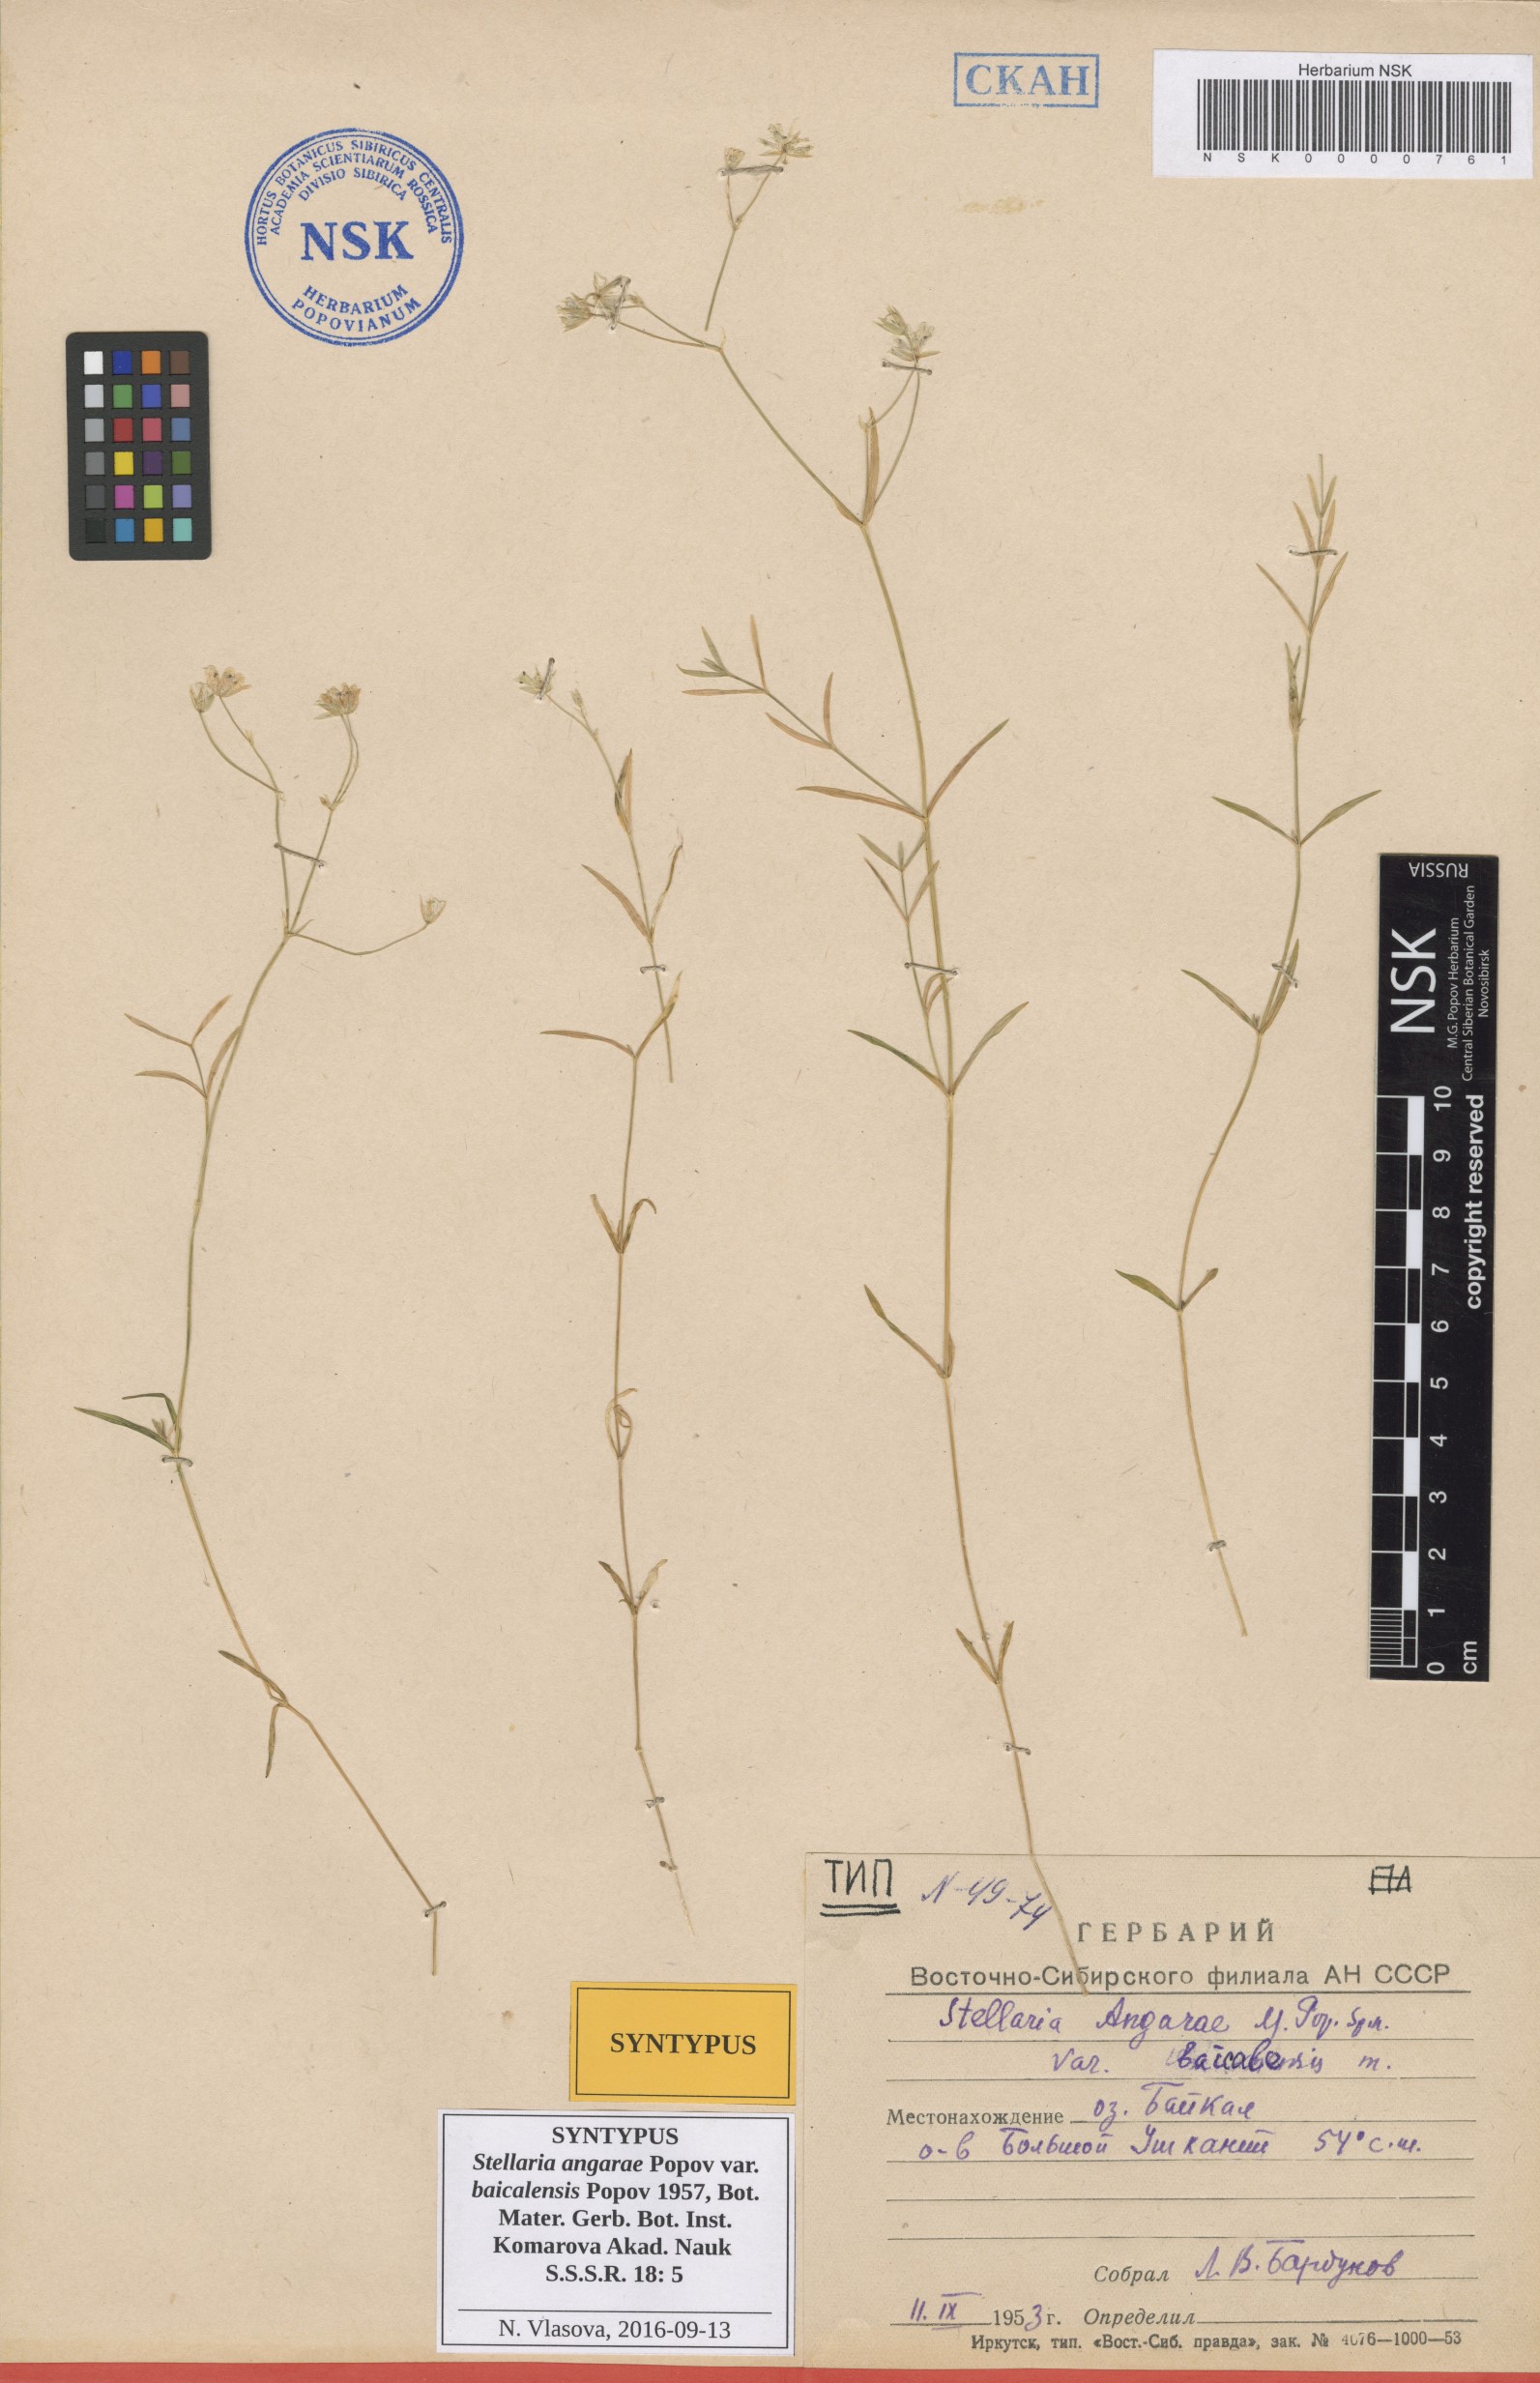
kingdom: Plantae
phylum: Tracheophyta
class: Magnoliopsida
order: Caryophyllales
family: Caryophyllaceae
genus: Stellaria
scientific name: Stellaria angarae
